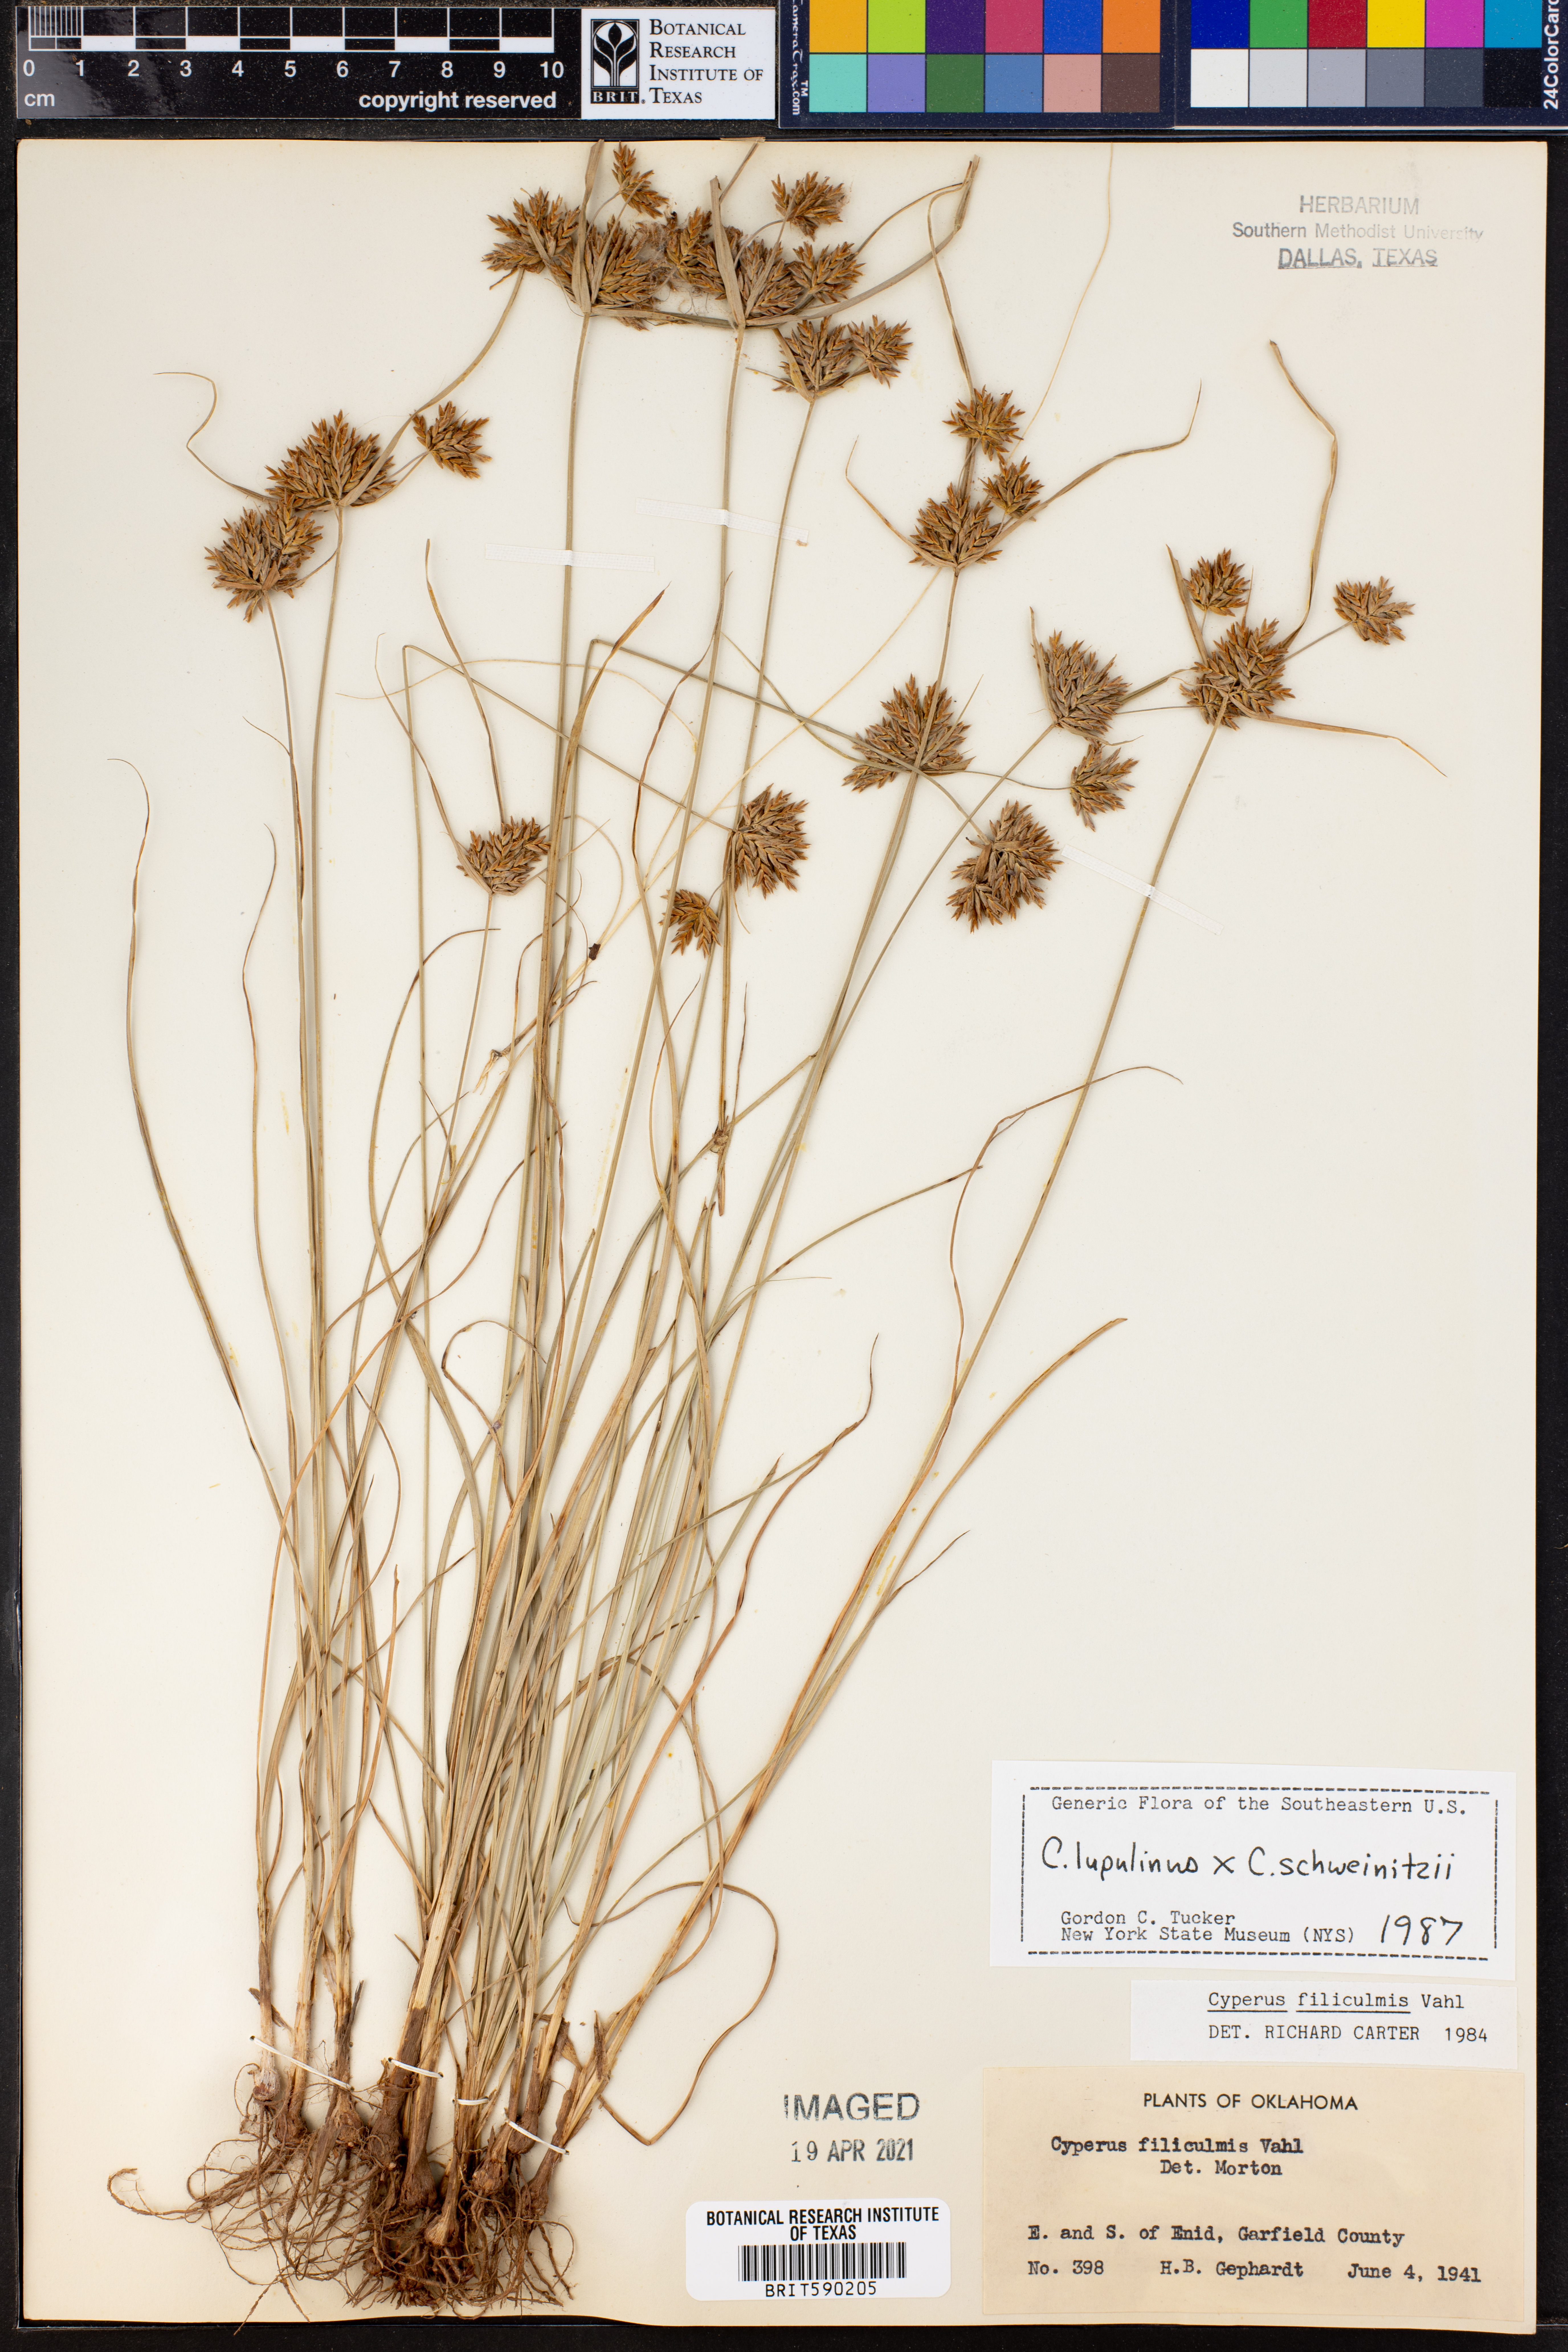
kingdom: Plantae
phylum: Tracheophyta
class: Liliopsida
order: Poales
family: Cyperaceae
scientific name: Cyperaceae
